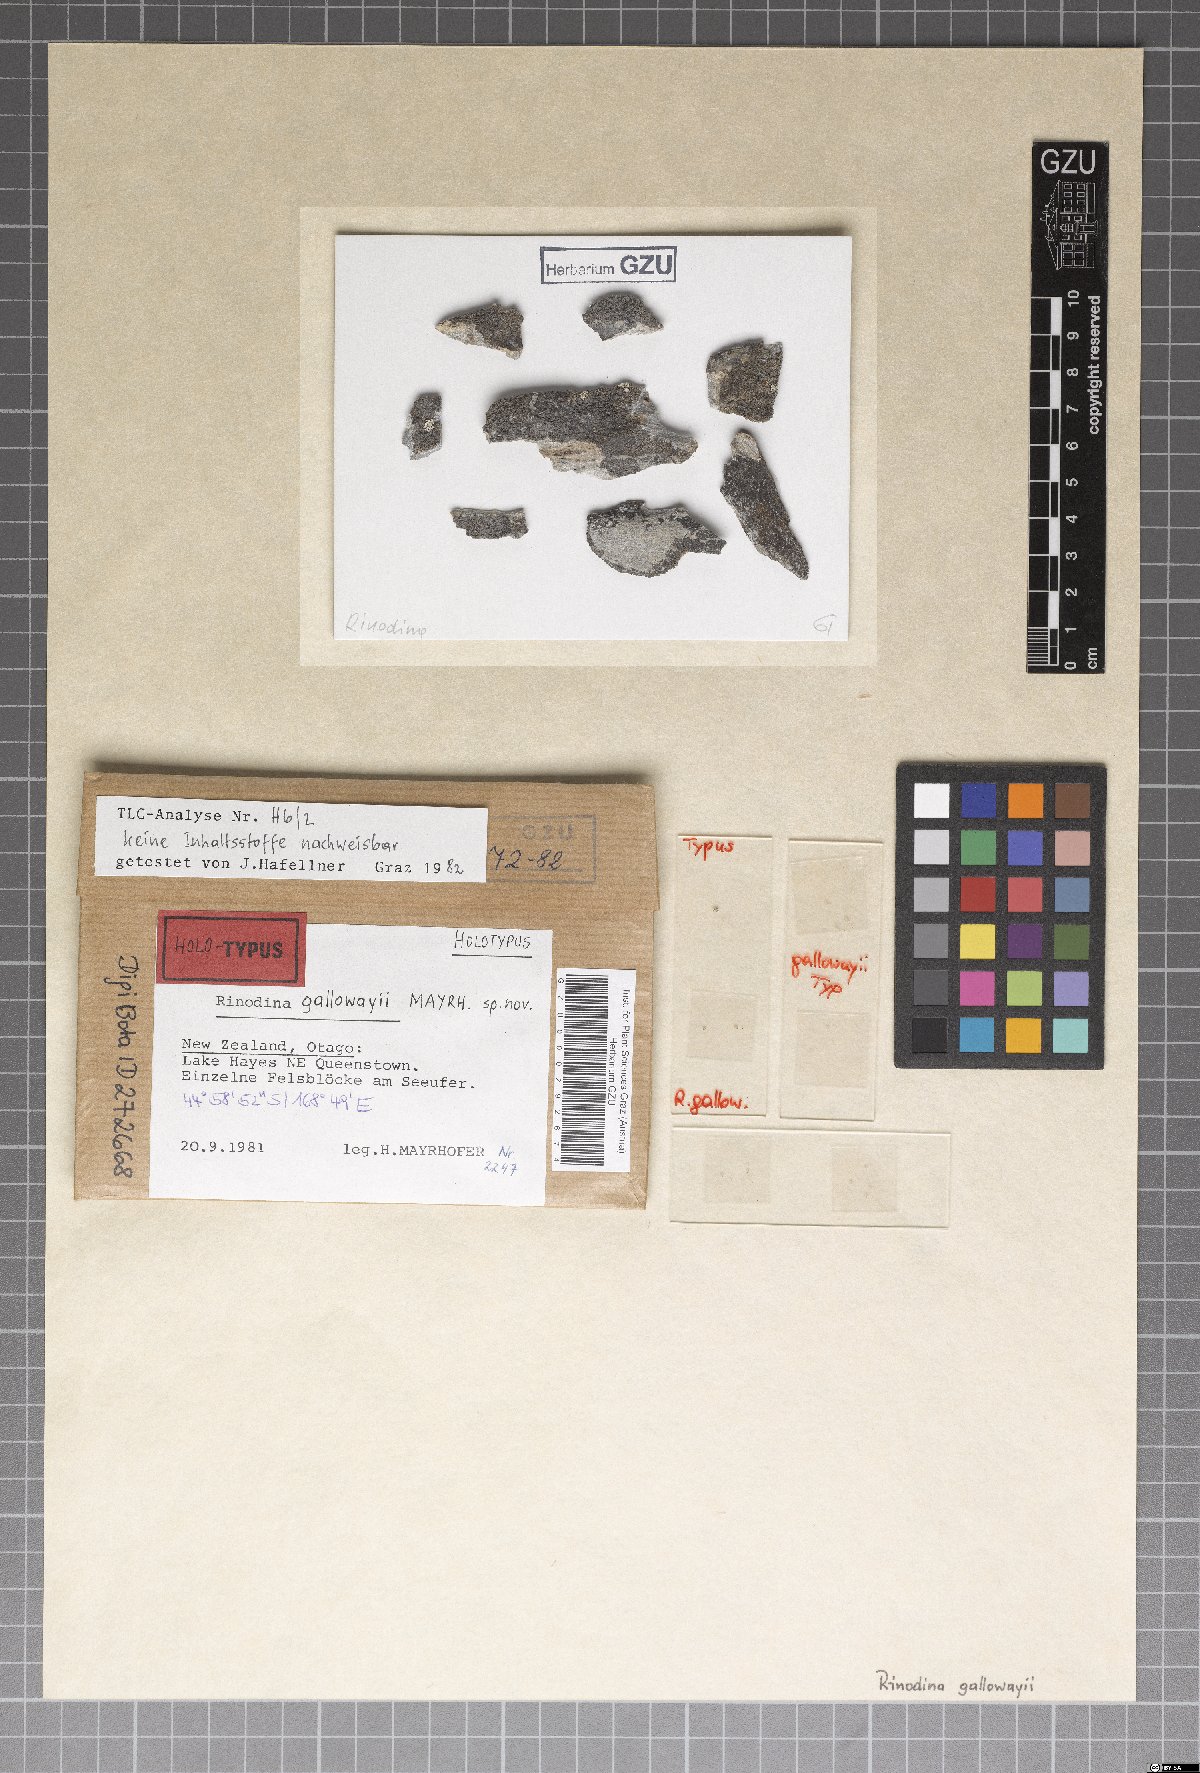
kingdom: Fungi
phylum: Ascomycota
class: Lecanoromycetes
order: Caliciales
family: Physciaceae
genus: Rinodina
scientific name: Rinodina gallowayi
